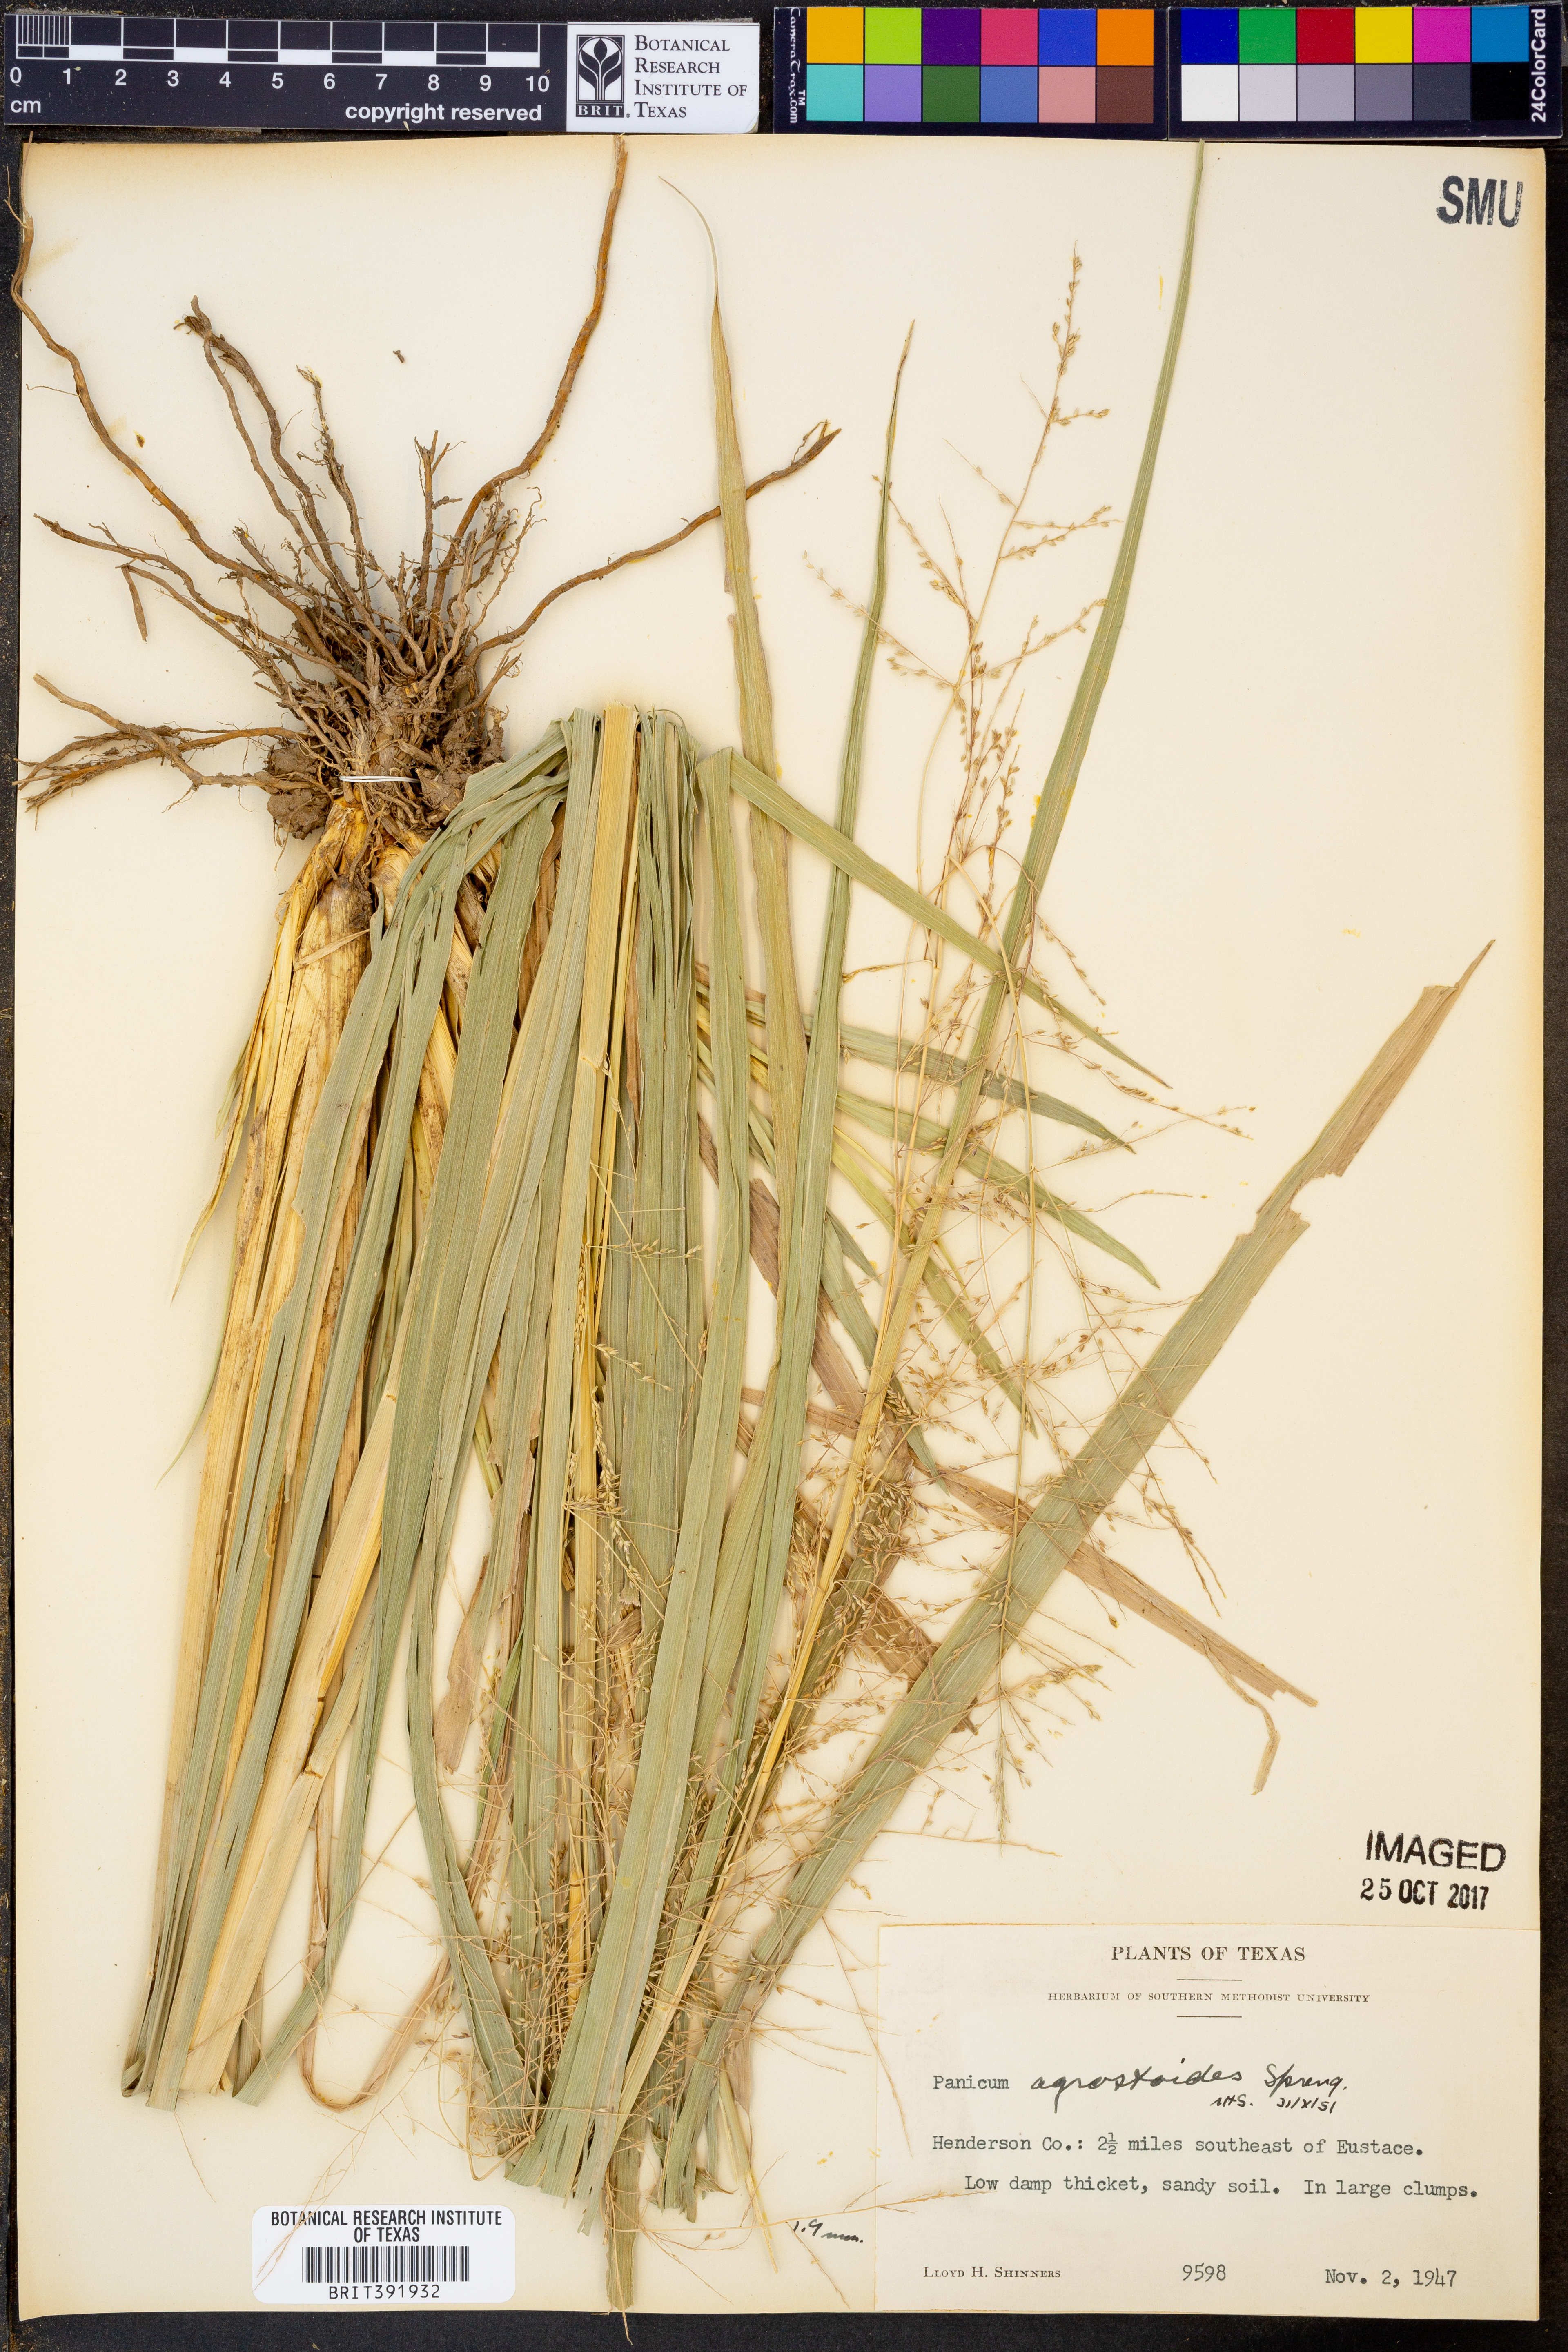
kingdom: Plantae
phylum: Tracheophyta
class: Liliopsida
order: Poales
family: Poaceae
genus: Steinchisma
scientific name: Steinchisma laxum
